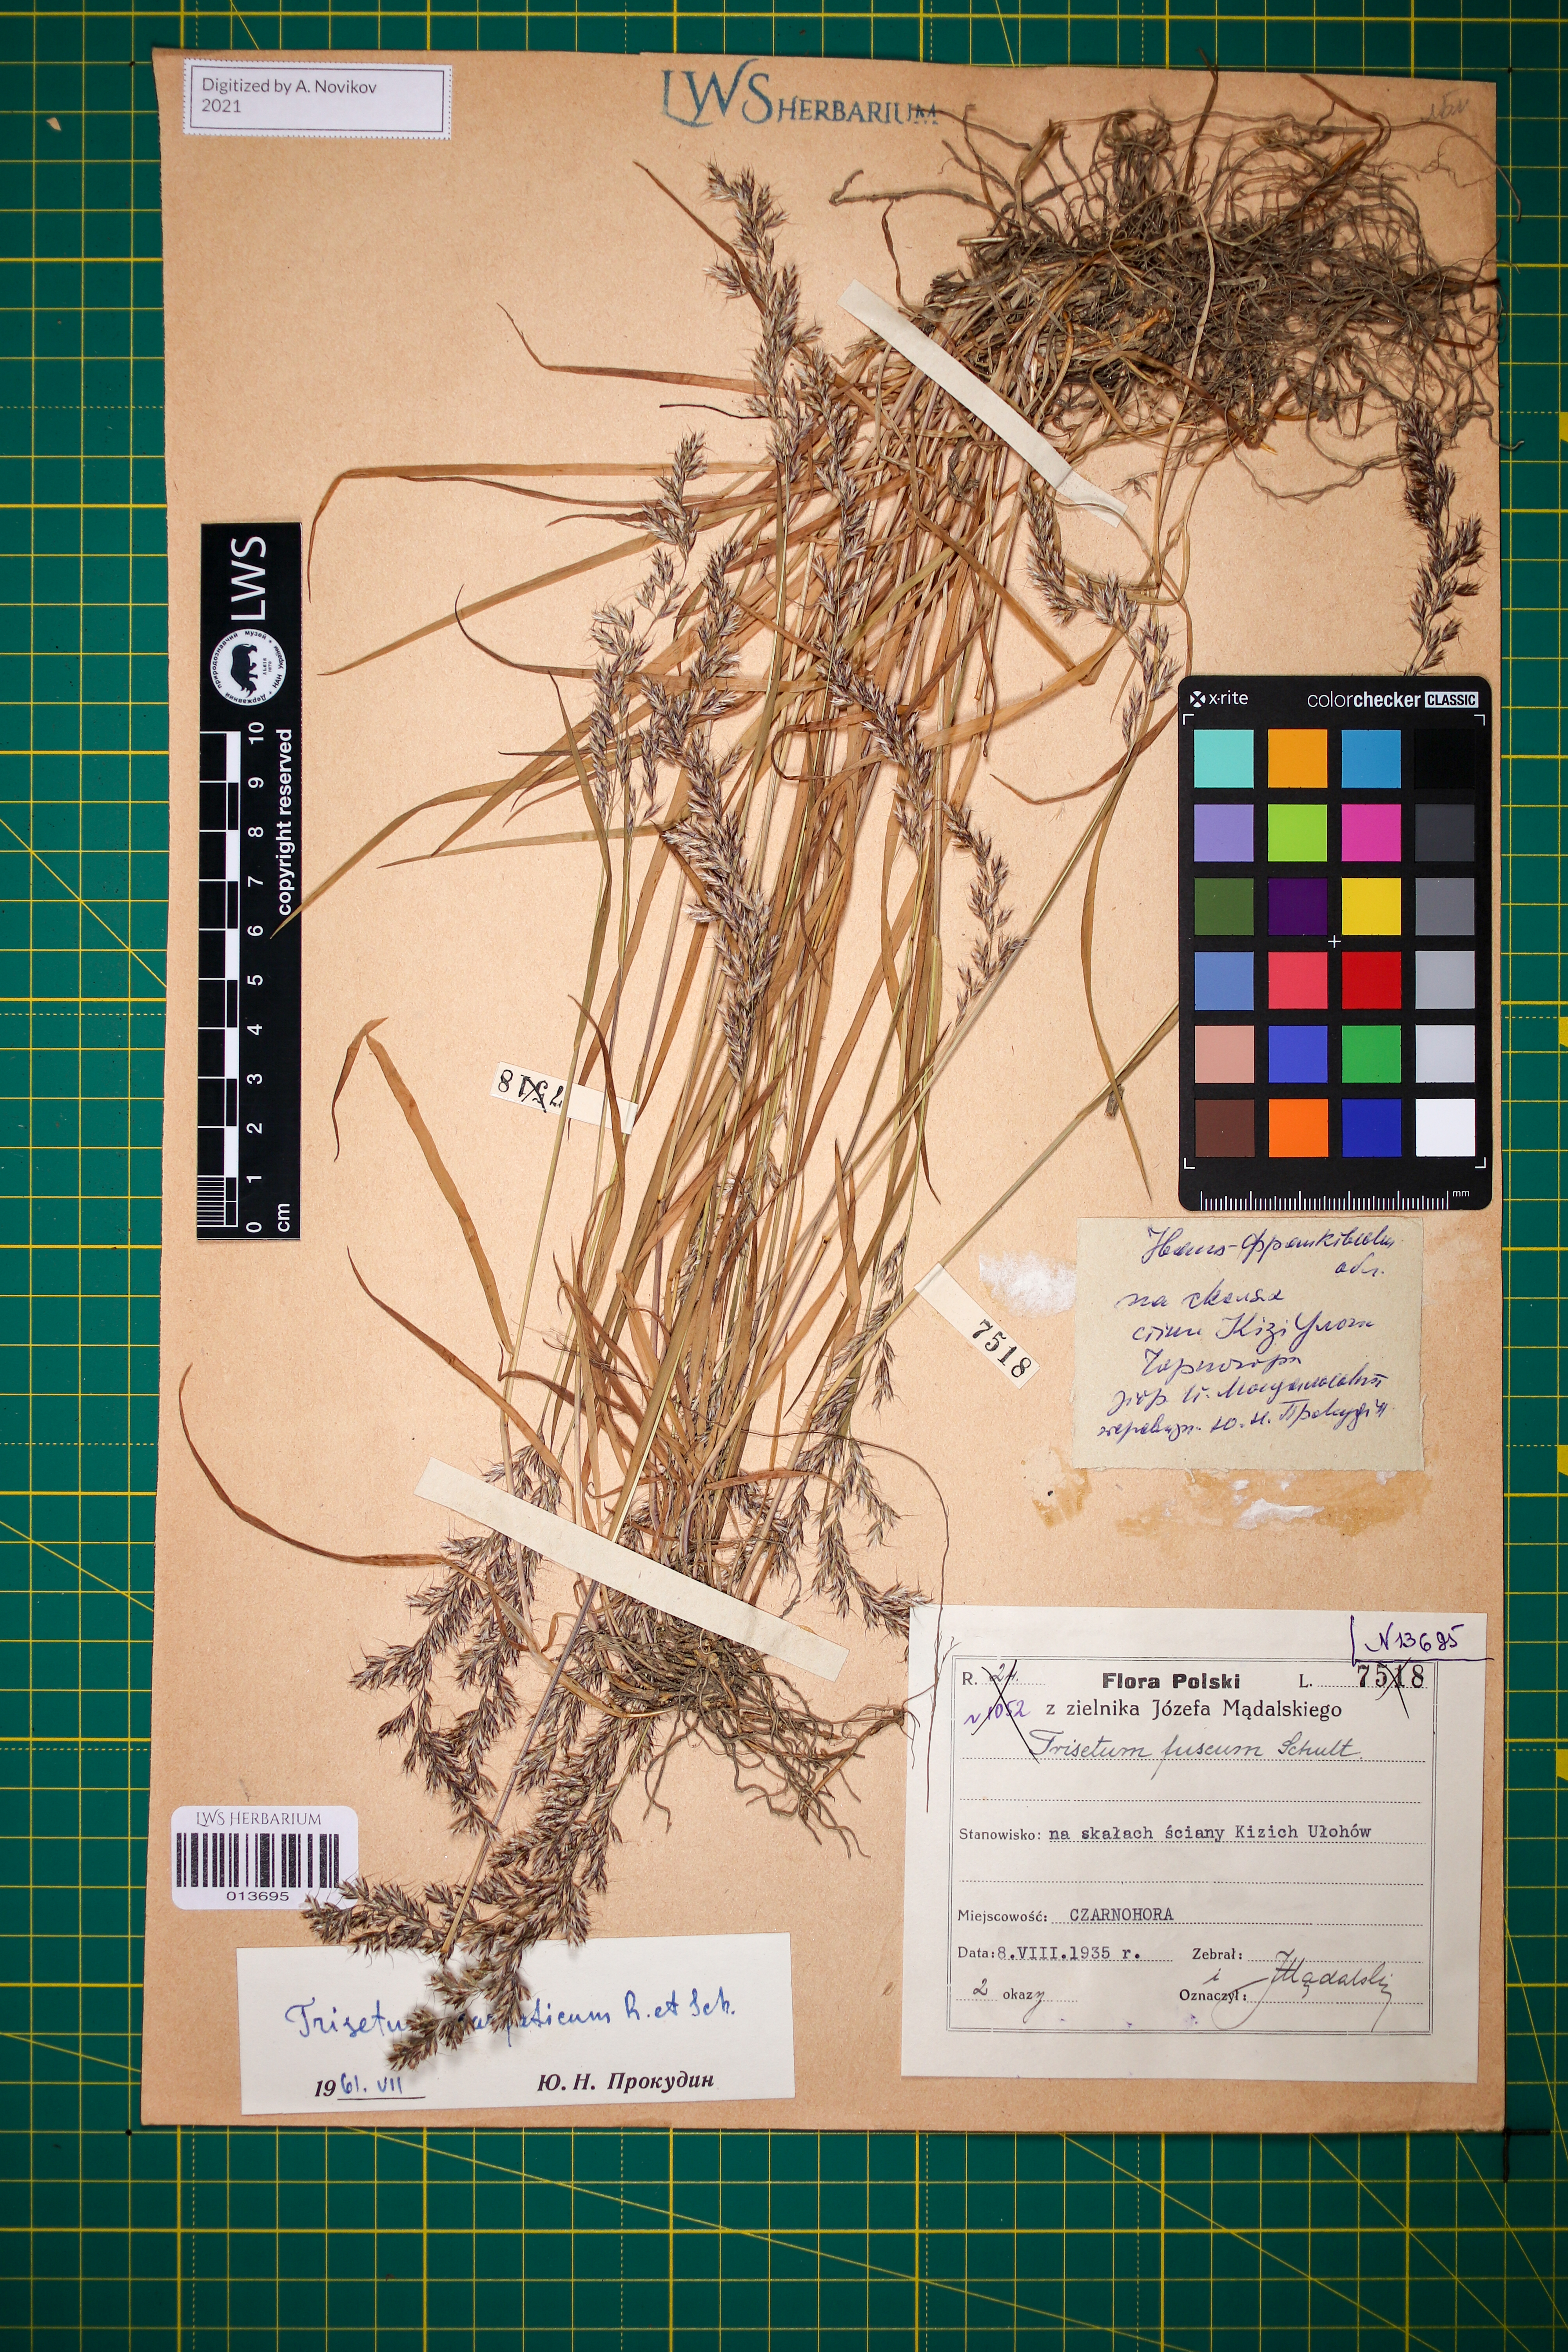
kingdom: Plantae
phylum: Tracheophyta
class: Liliopsida
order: Poales
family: Poaceae
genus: Trisetum
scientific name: Trisetum fuscum
